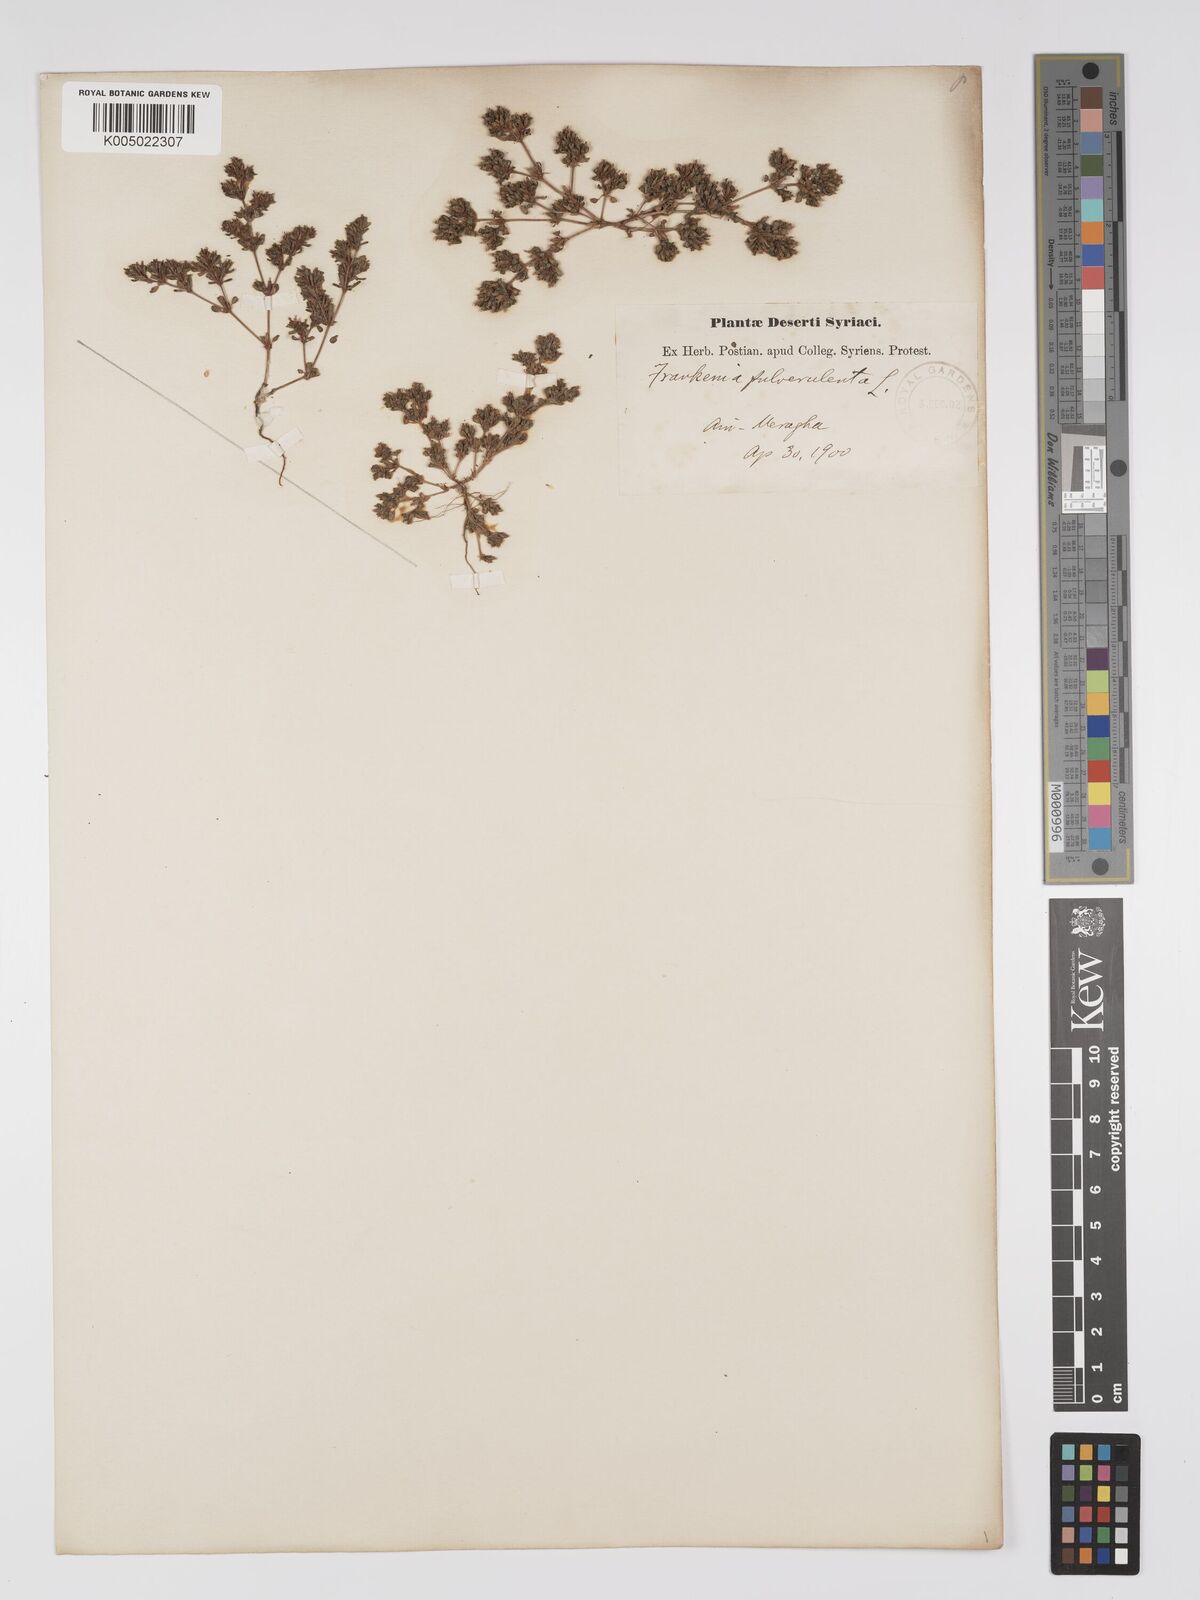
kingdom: Plantae
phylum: Tracheophyta
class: Magnoliopsida
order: Caryophyllales
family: Frankeniaceae
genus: Frankenia
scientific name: Frankenia pulverulenta
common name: European seaheath
